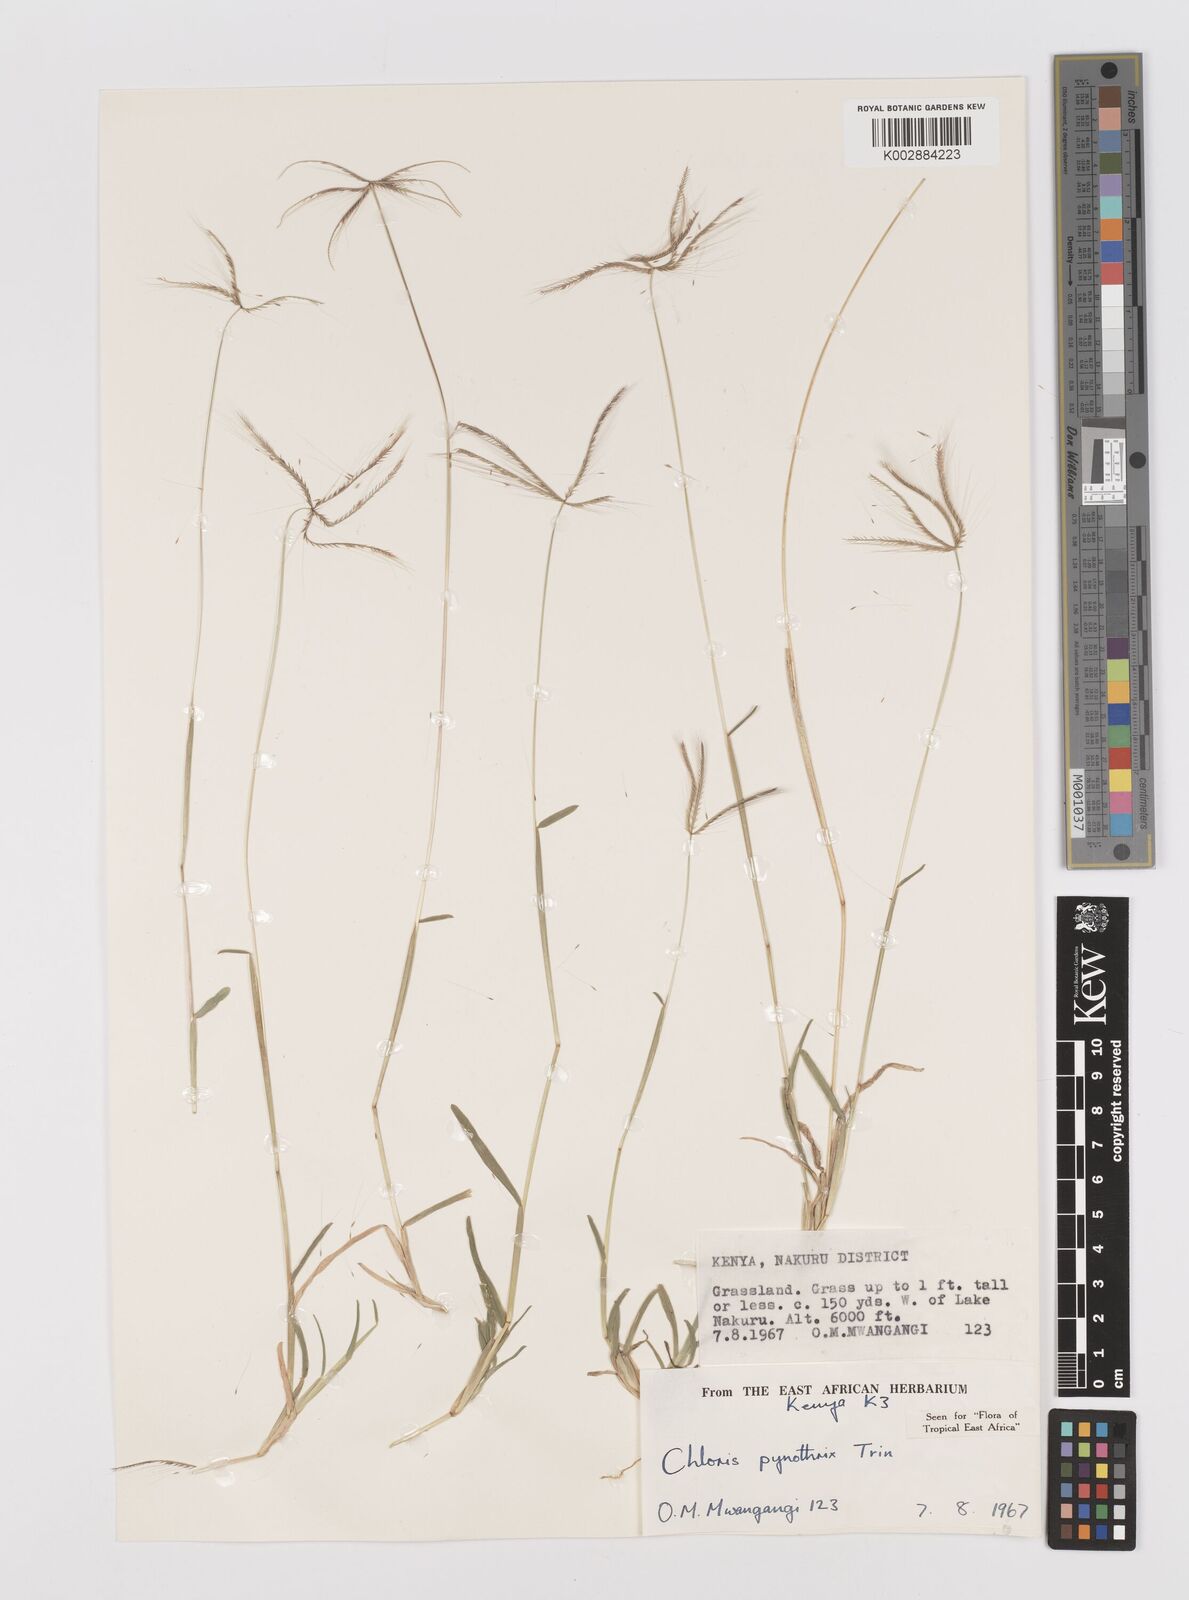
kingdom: Plantae
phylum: Tracheophyta
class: Liliopsida
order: Poales
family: Poaceae
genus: Chloris
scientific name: Chloris pycnothrix
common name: Spiderweb chloris
